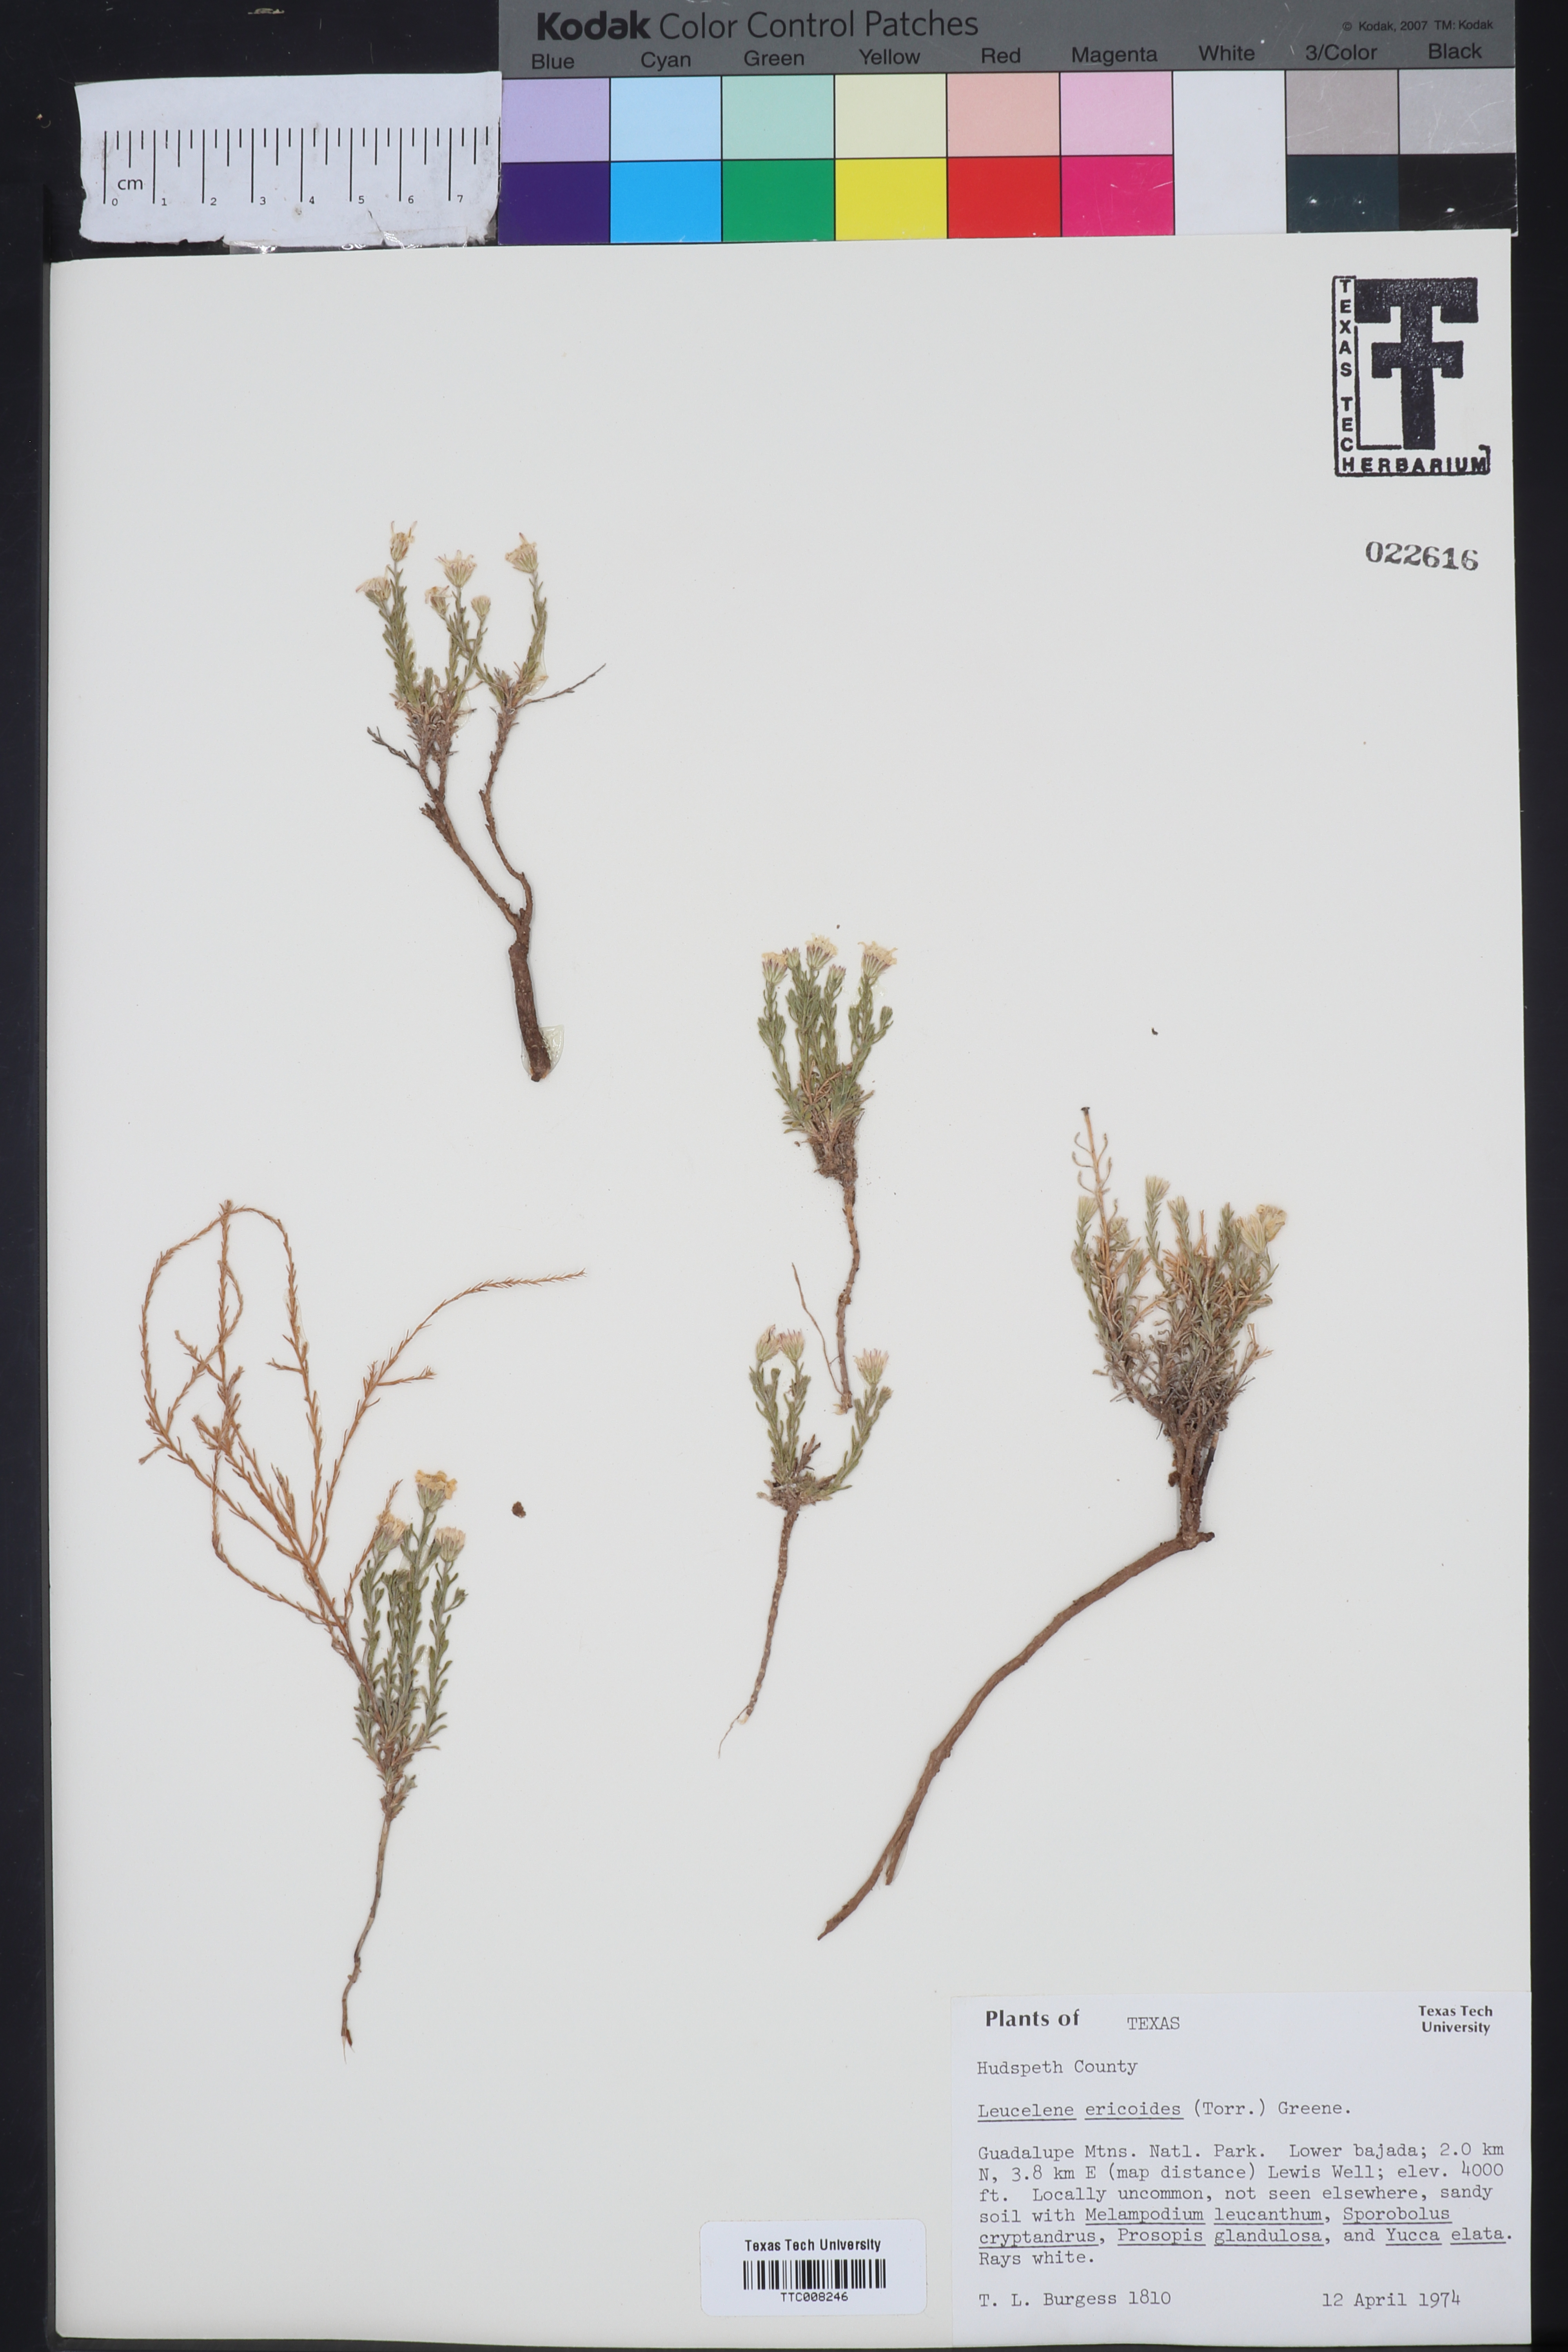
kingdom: Plantae
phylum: Tracheophyta
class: Magnoliopsida
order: Asterales
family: Asteraceae
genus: Chaetopappa
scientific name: Chaetopappa ericoides
